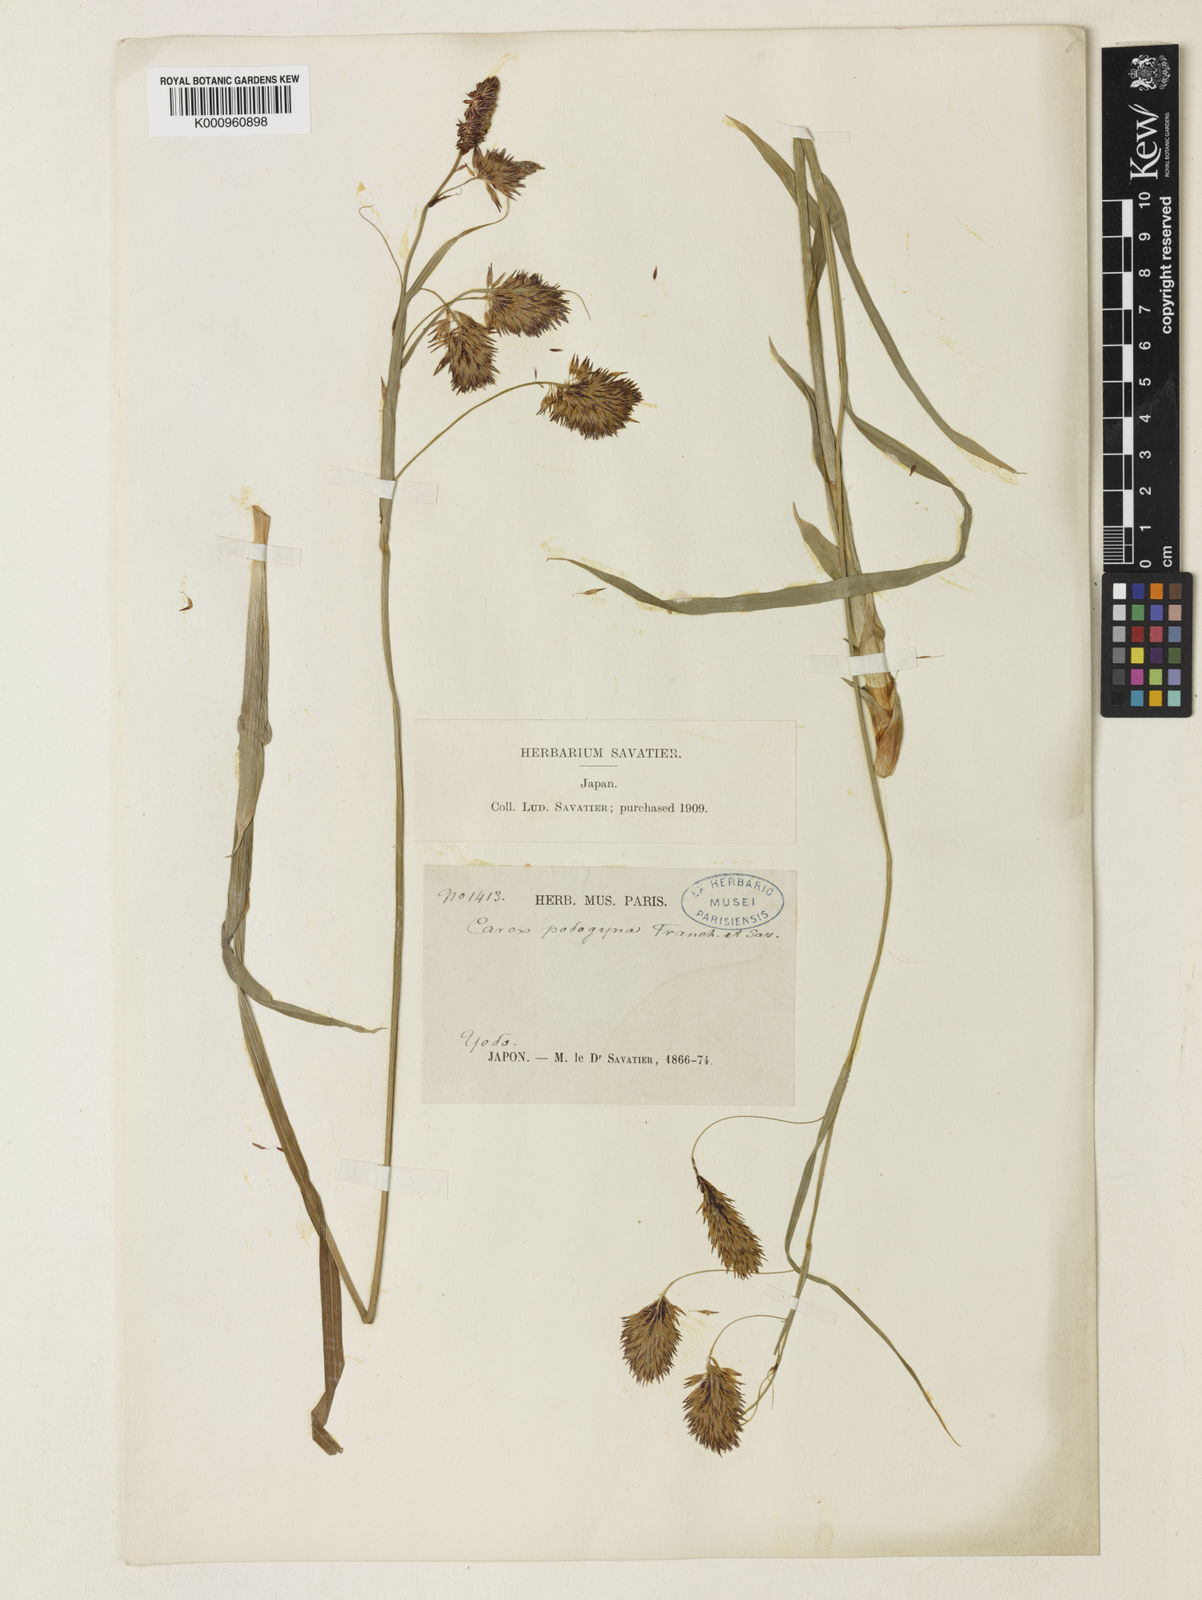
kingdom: Plantae
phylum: Tracheophyta
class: Liliopsida
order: Poales
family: Cyperaceae
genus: Carex
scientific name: Carex podogyna
